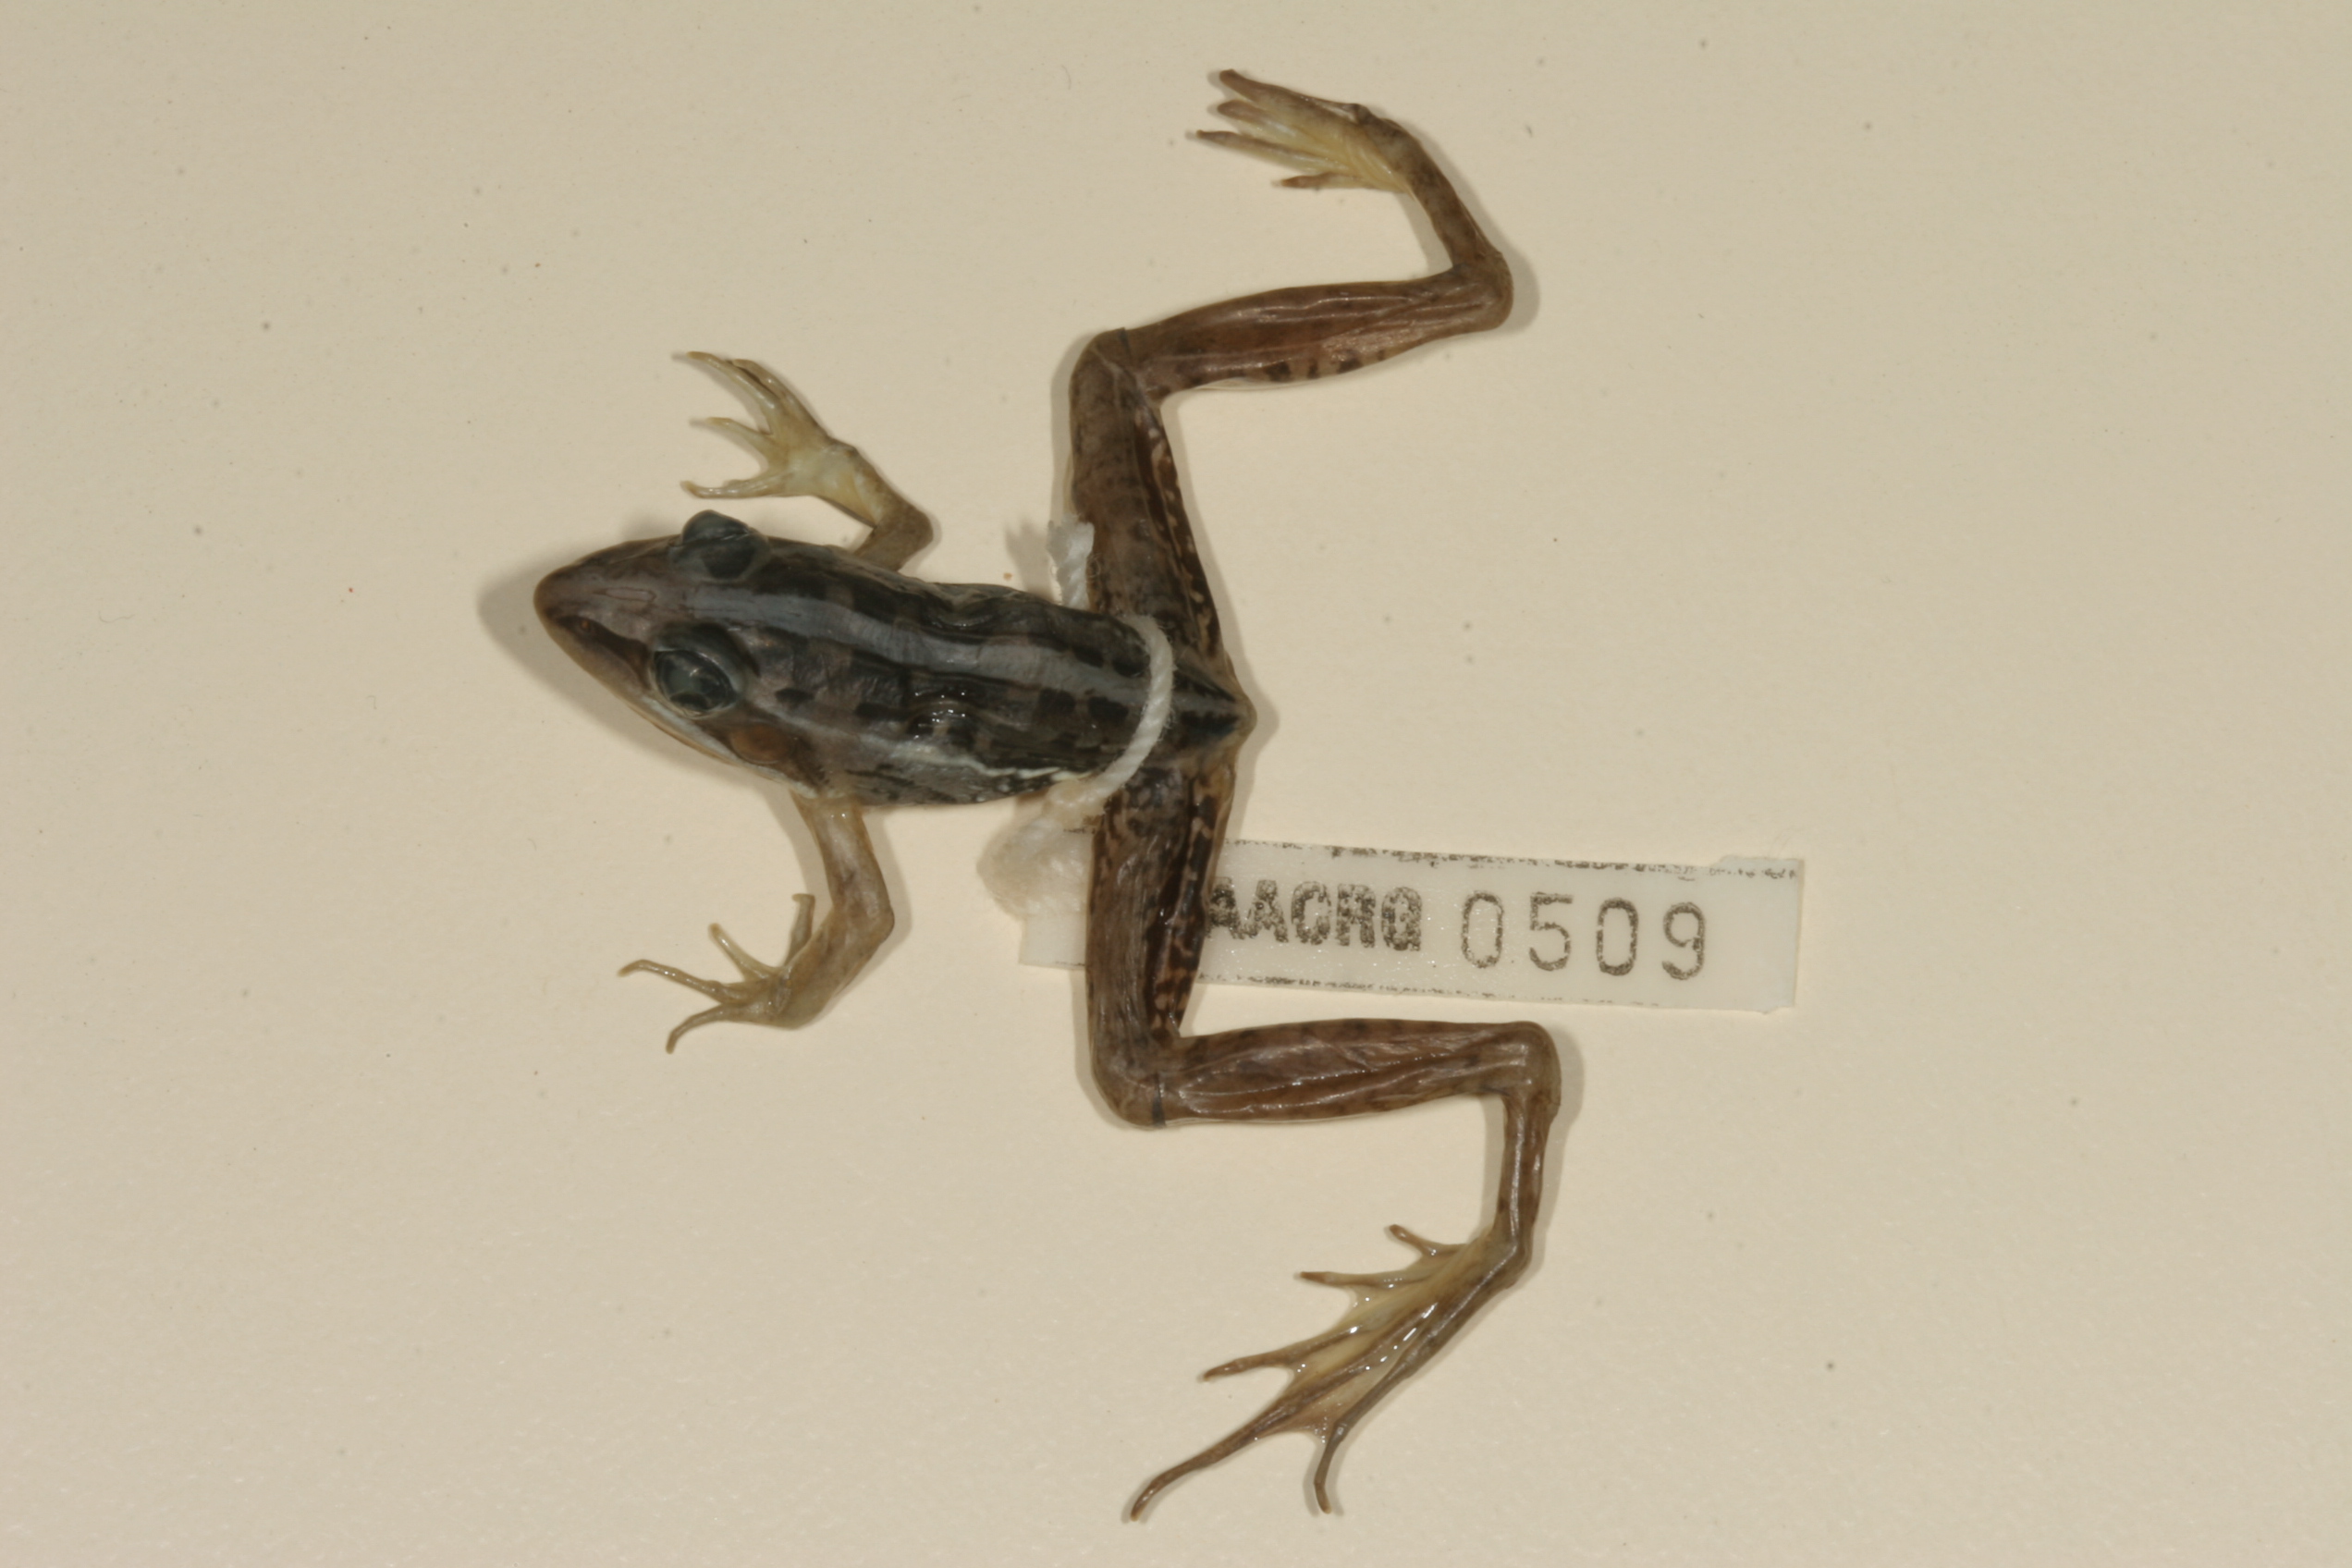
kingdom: Animalia
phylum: Chordata
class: Amphibia
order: Anura
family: Ptychadenidae
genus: Ptychadena
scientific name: Ptychadena mascareniensis
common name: Mascarene grass frog
